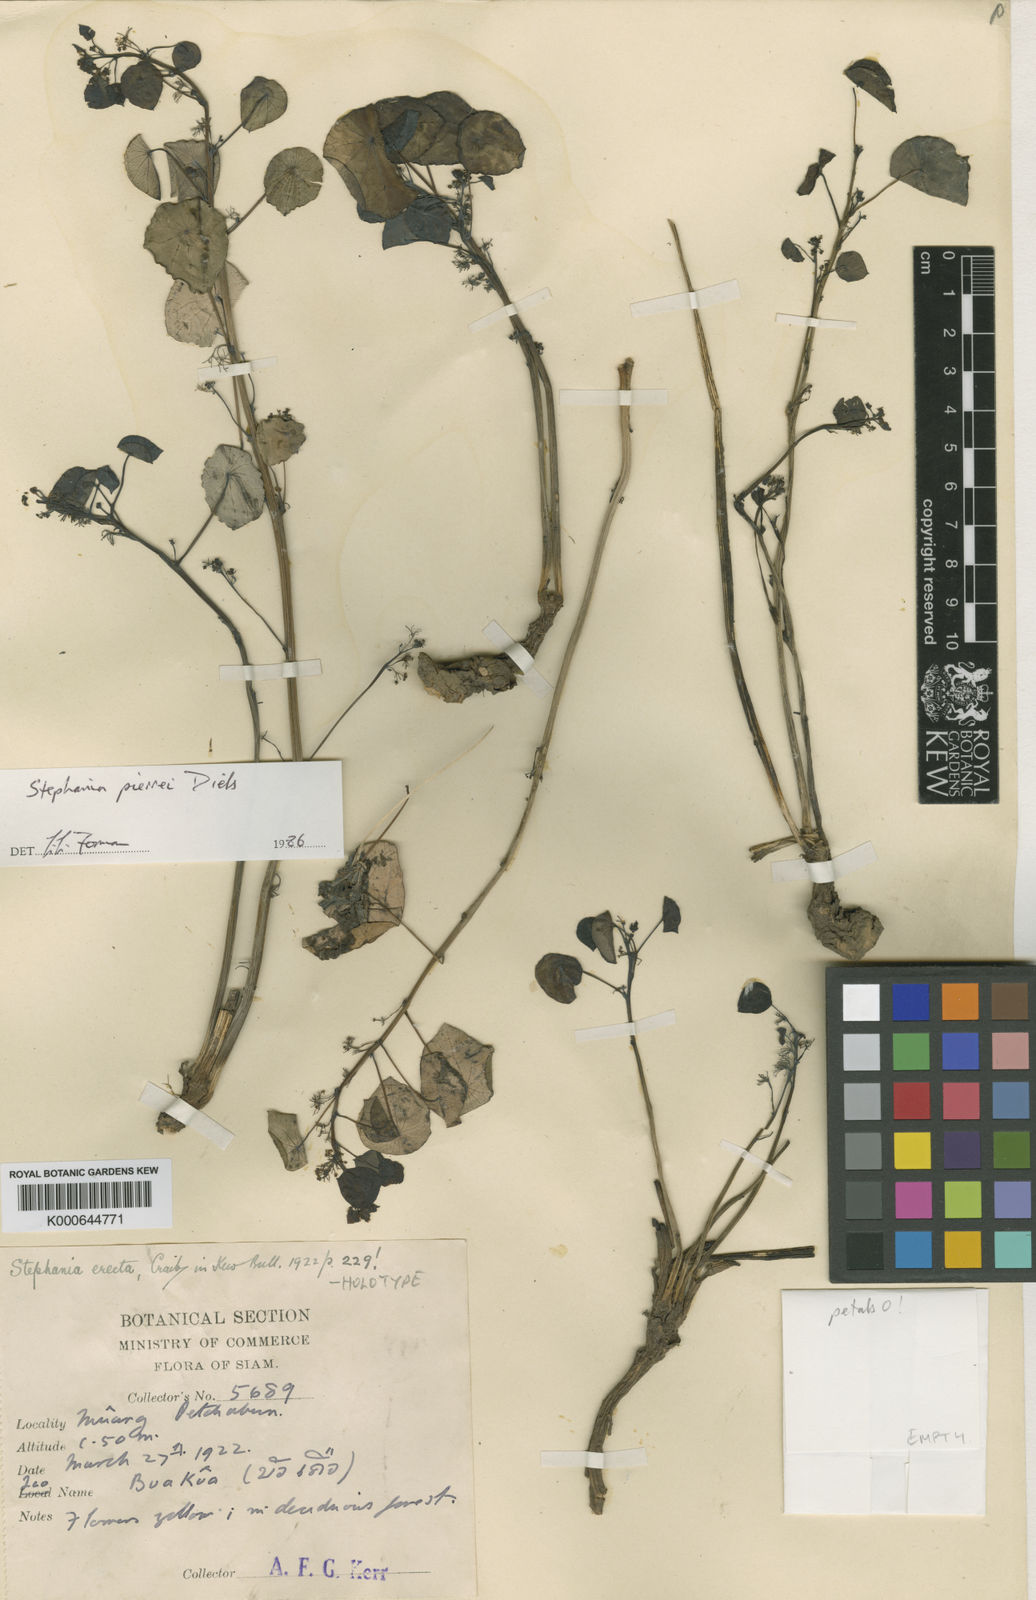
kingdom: Plantae
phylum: Tracheophyta
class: Magnoliopsida
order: Ranunculales
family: Menispermaceae
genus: Stephania
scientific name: Stephania pierrei
